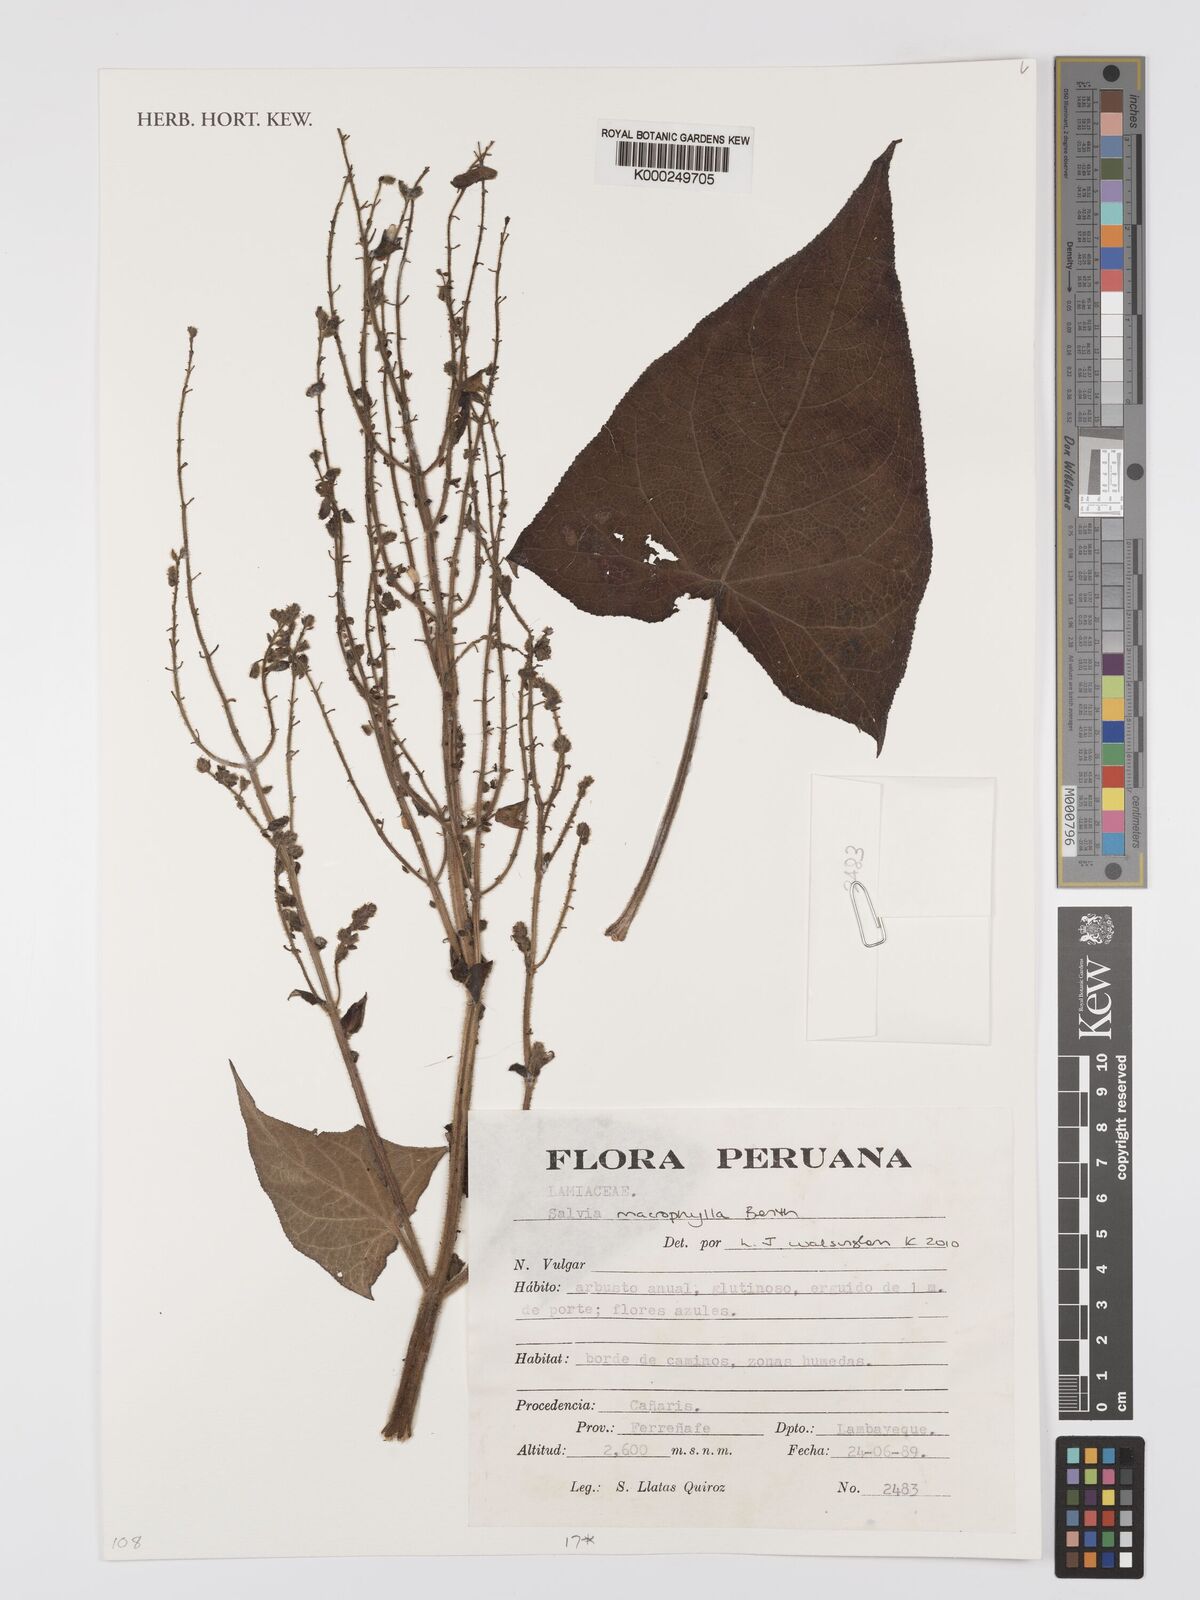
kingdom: Plantae
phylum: Tracheophyta
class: Magnoliopsida
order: Lamiales
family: Lamiaceae
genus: Salvia
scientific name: Salvia macrophylla
